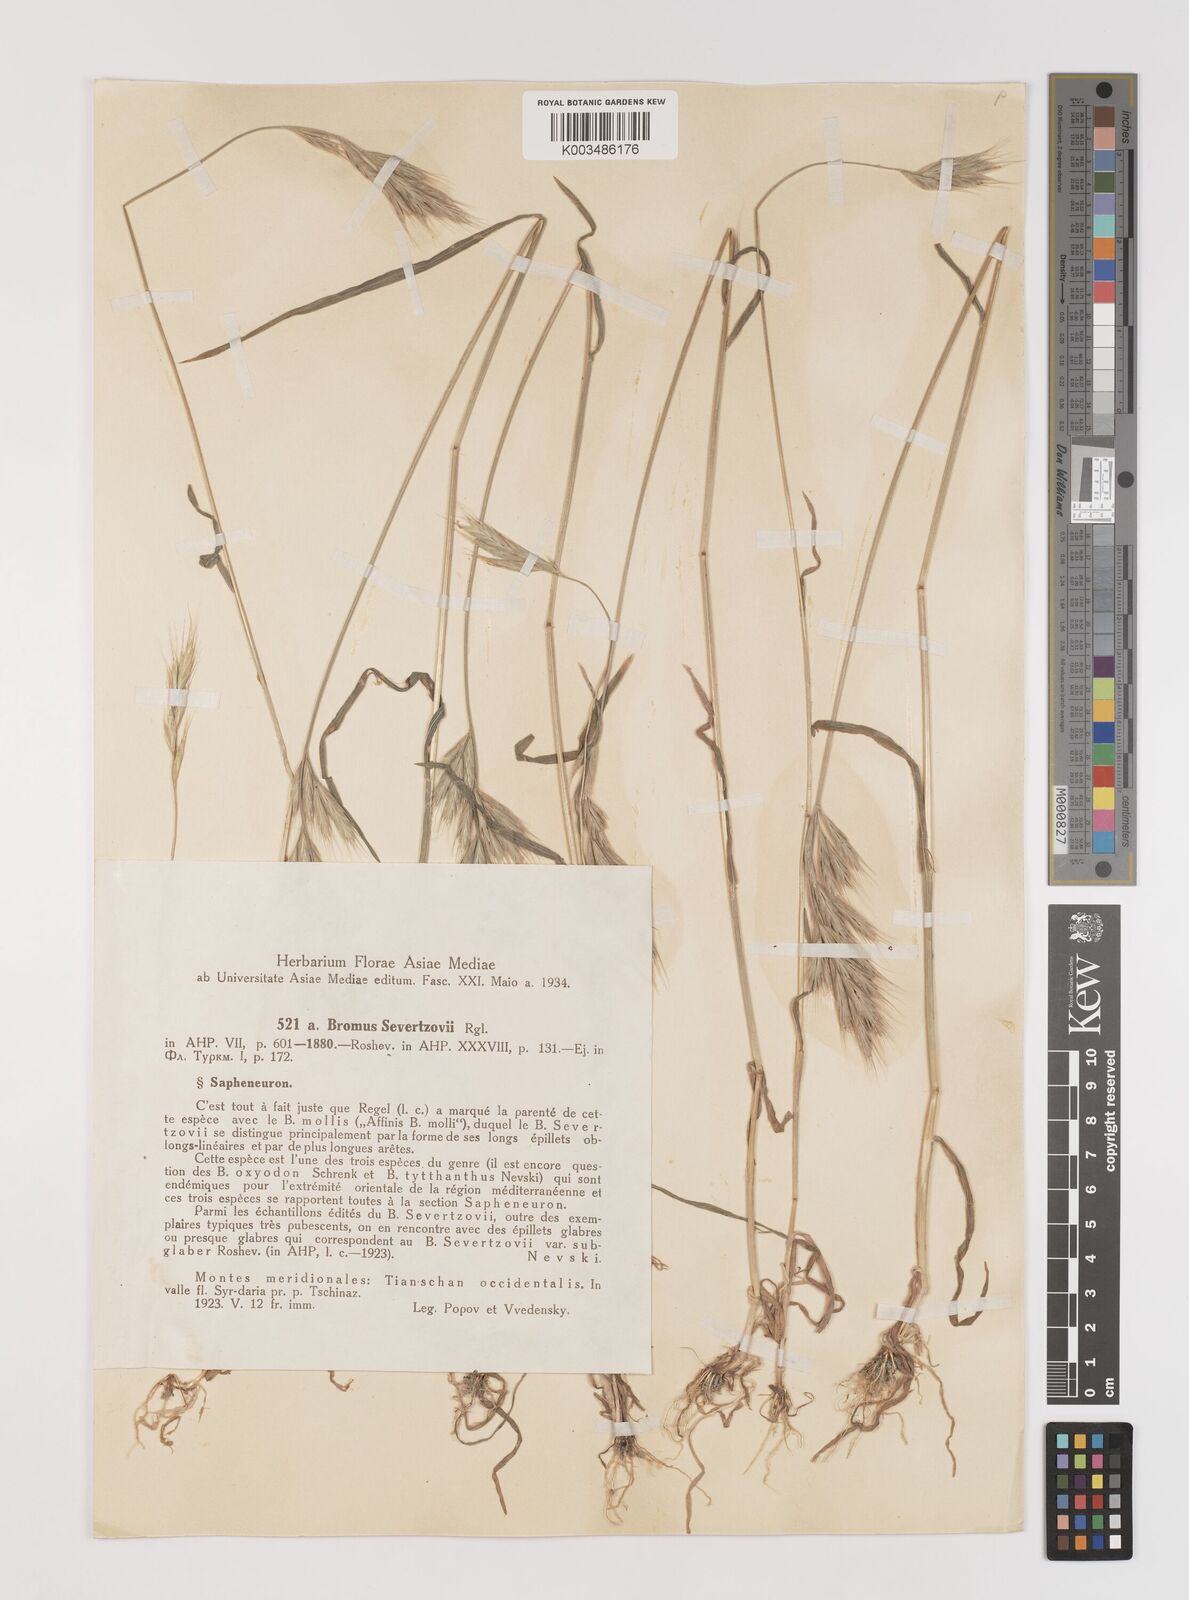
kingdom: Plantae
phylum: Tracheophyta
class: Liliopsida
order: Poales
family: Poaceae
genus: Bromus
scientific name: Bromus sewerzowii
